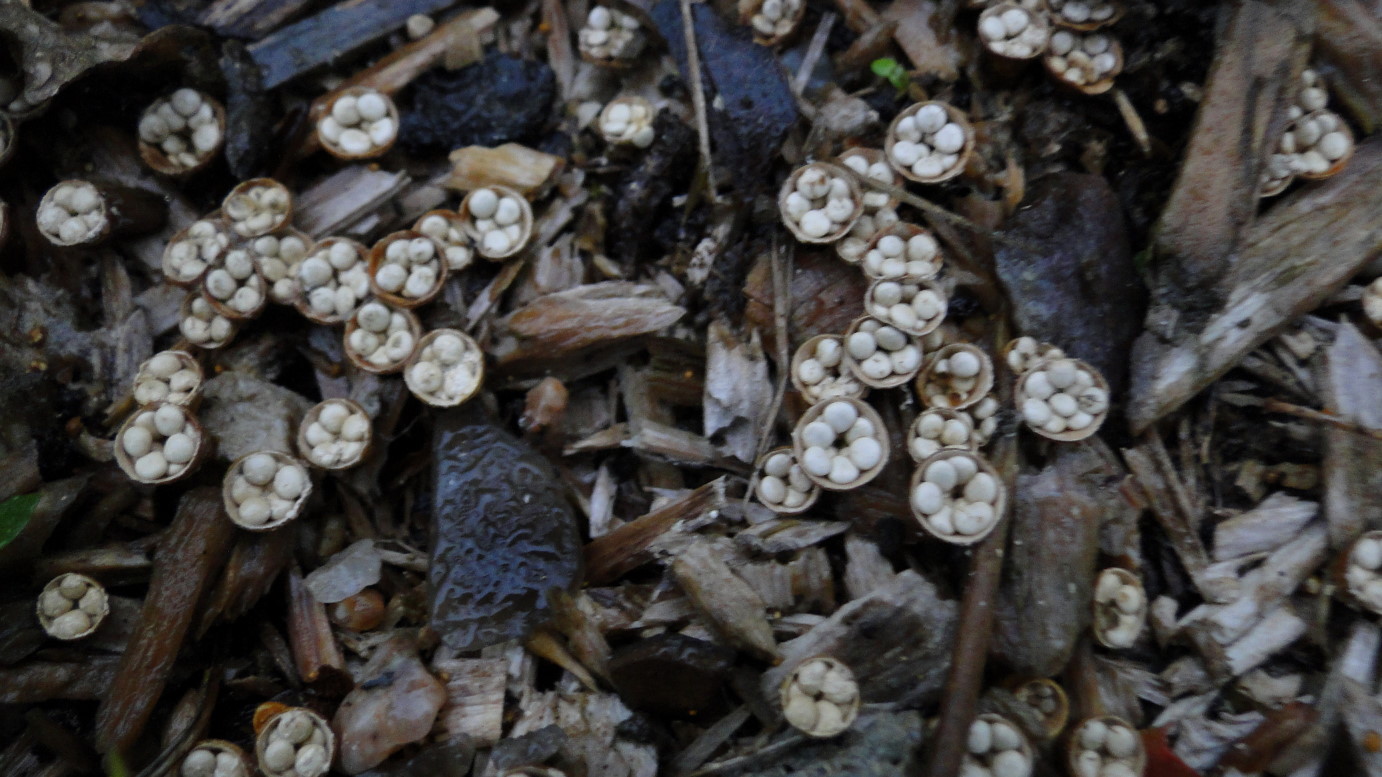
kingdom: Fungi
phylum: Basidiomycota
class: Agaricomycetes
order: Agaricales
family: Nidulariaceae
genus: Crucibulum
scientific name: Crucibulum crucibuliforme
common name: krukkesvamp
